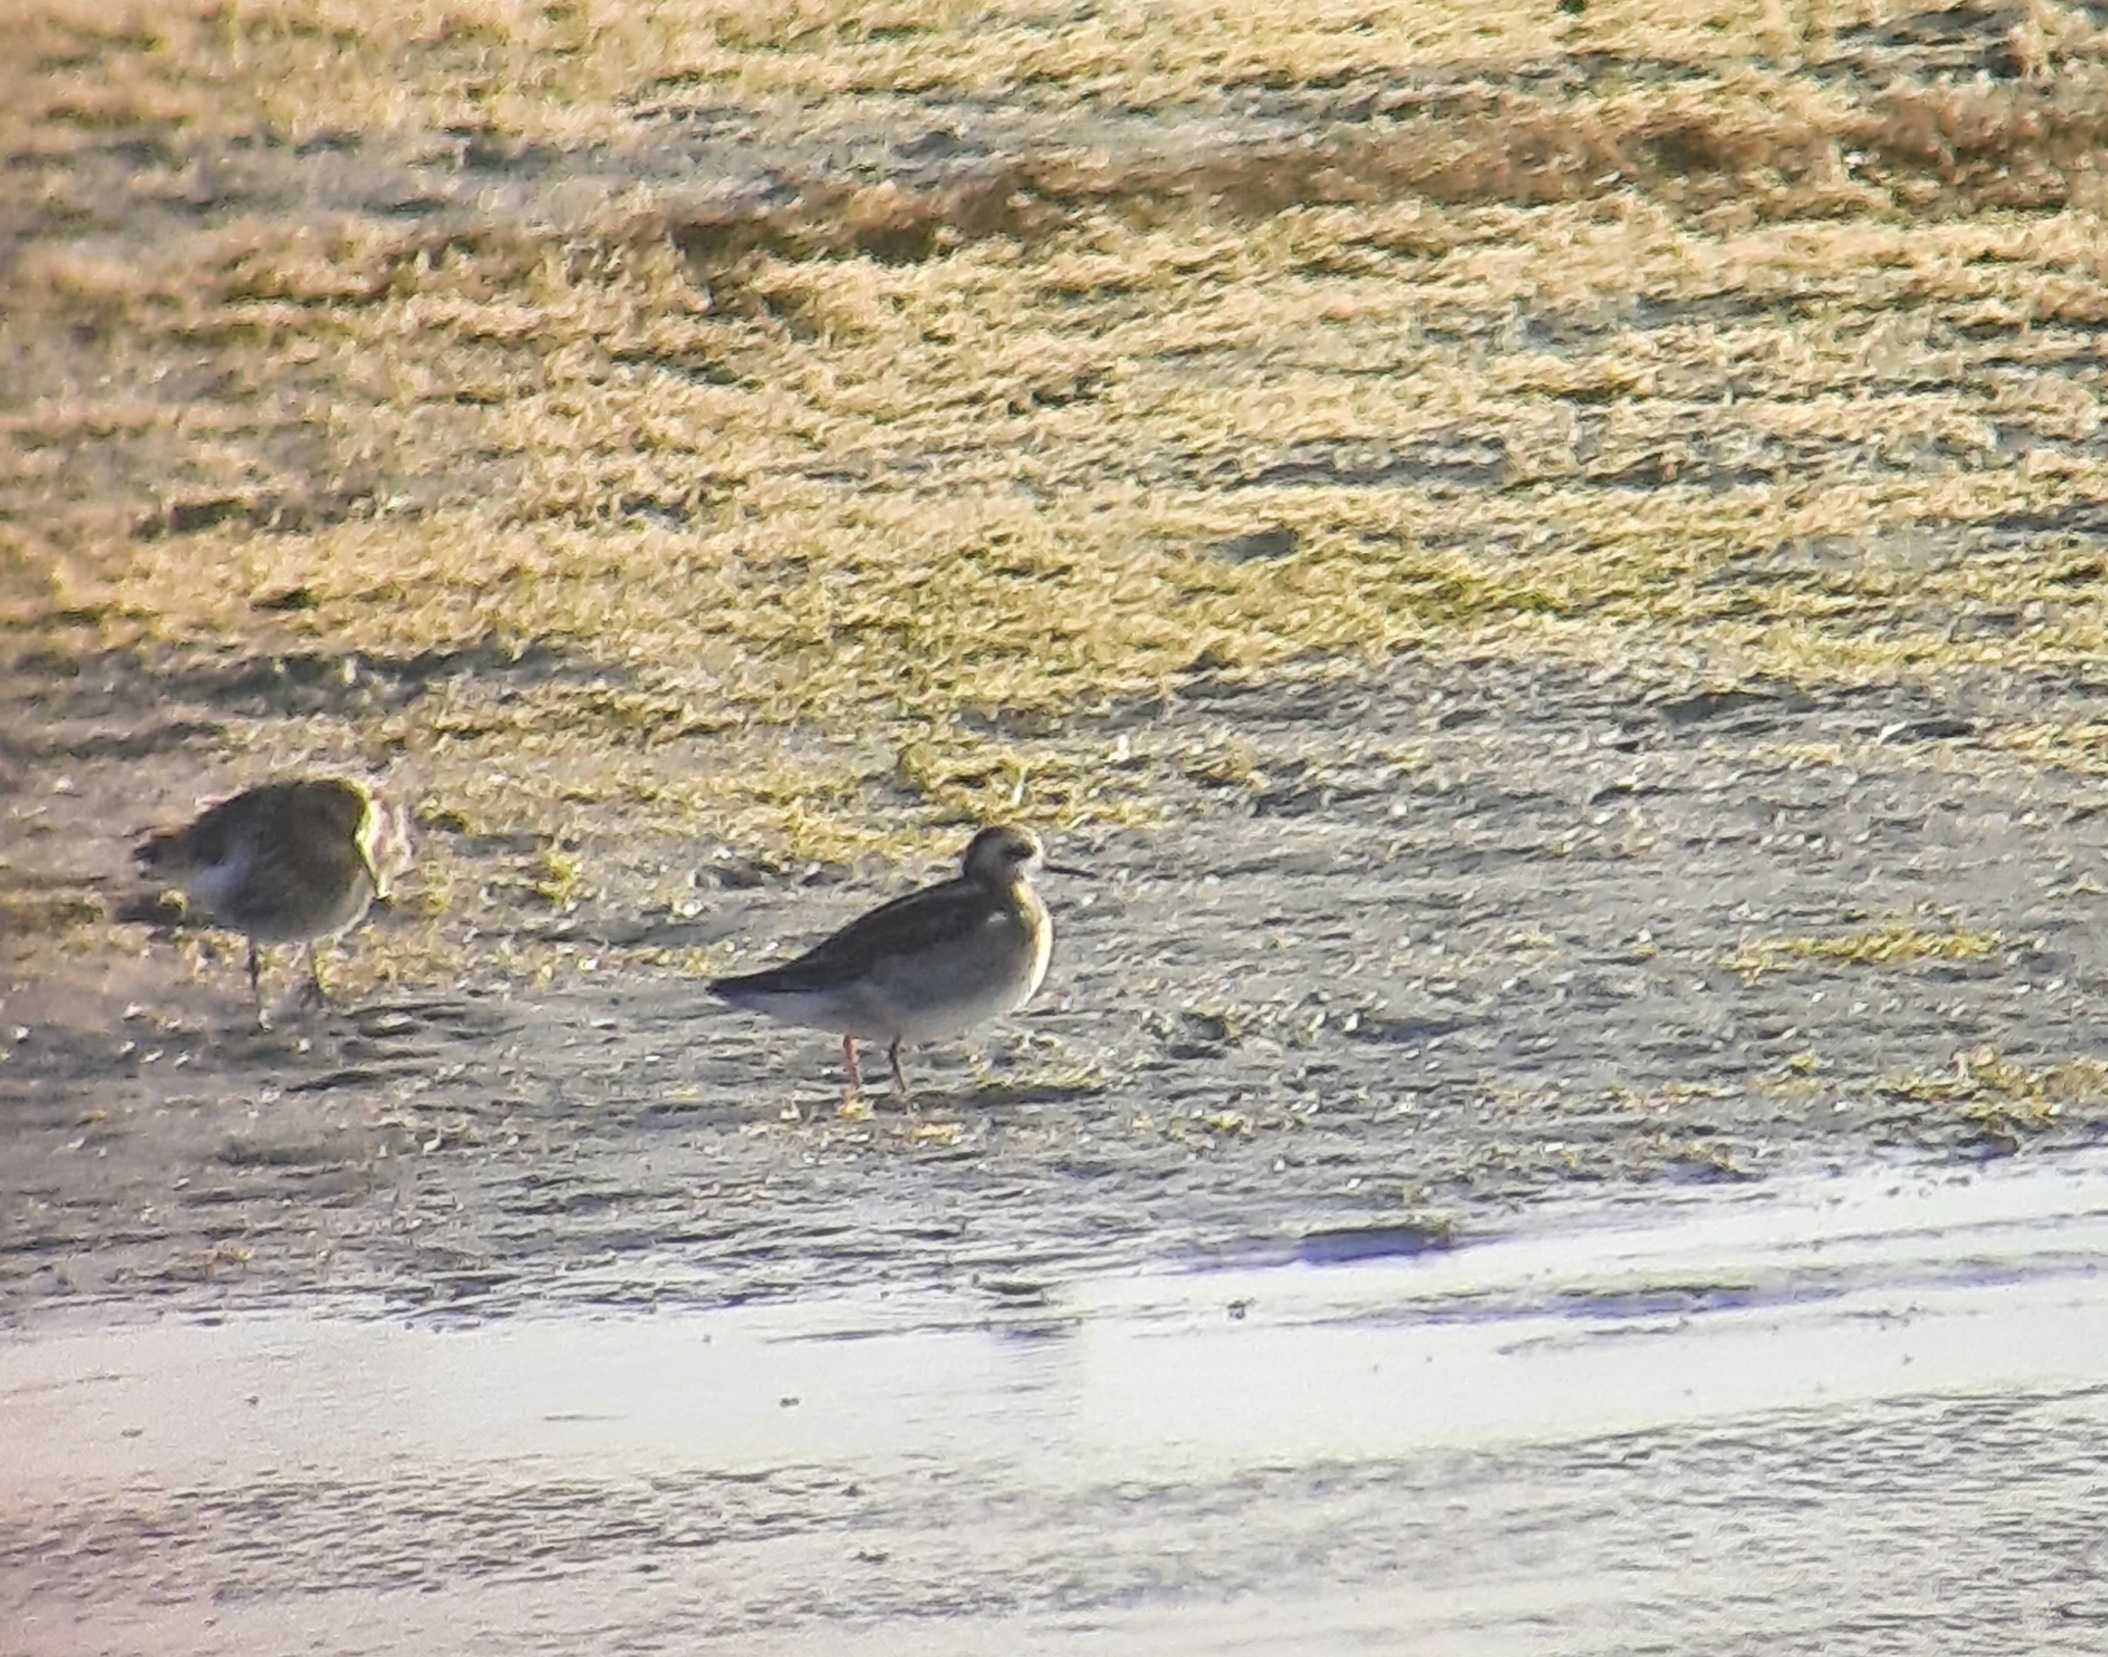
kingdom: Animalia
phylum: Chordata
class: Aves
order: Charadriiformes
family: Scolopacidae
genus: Phalaropus
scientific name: Phalaropus lobatus
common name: Odinshane
